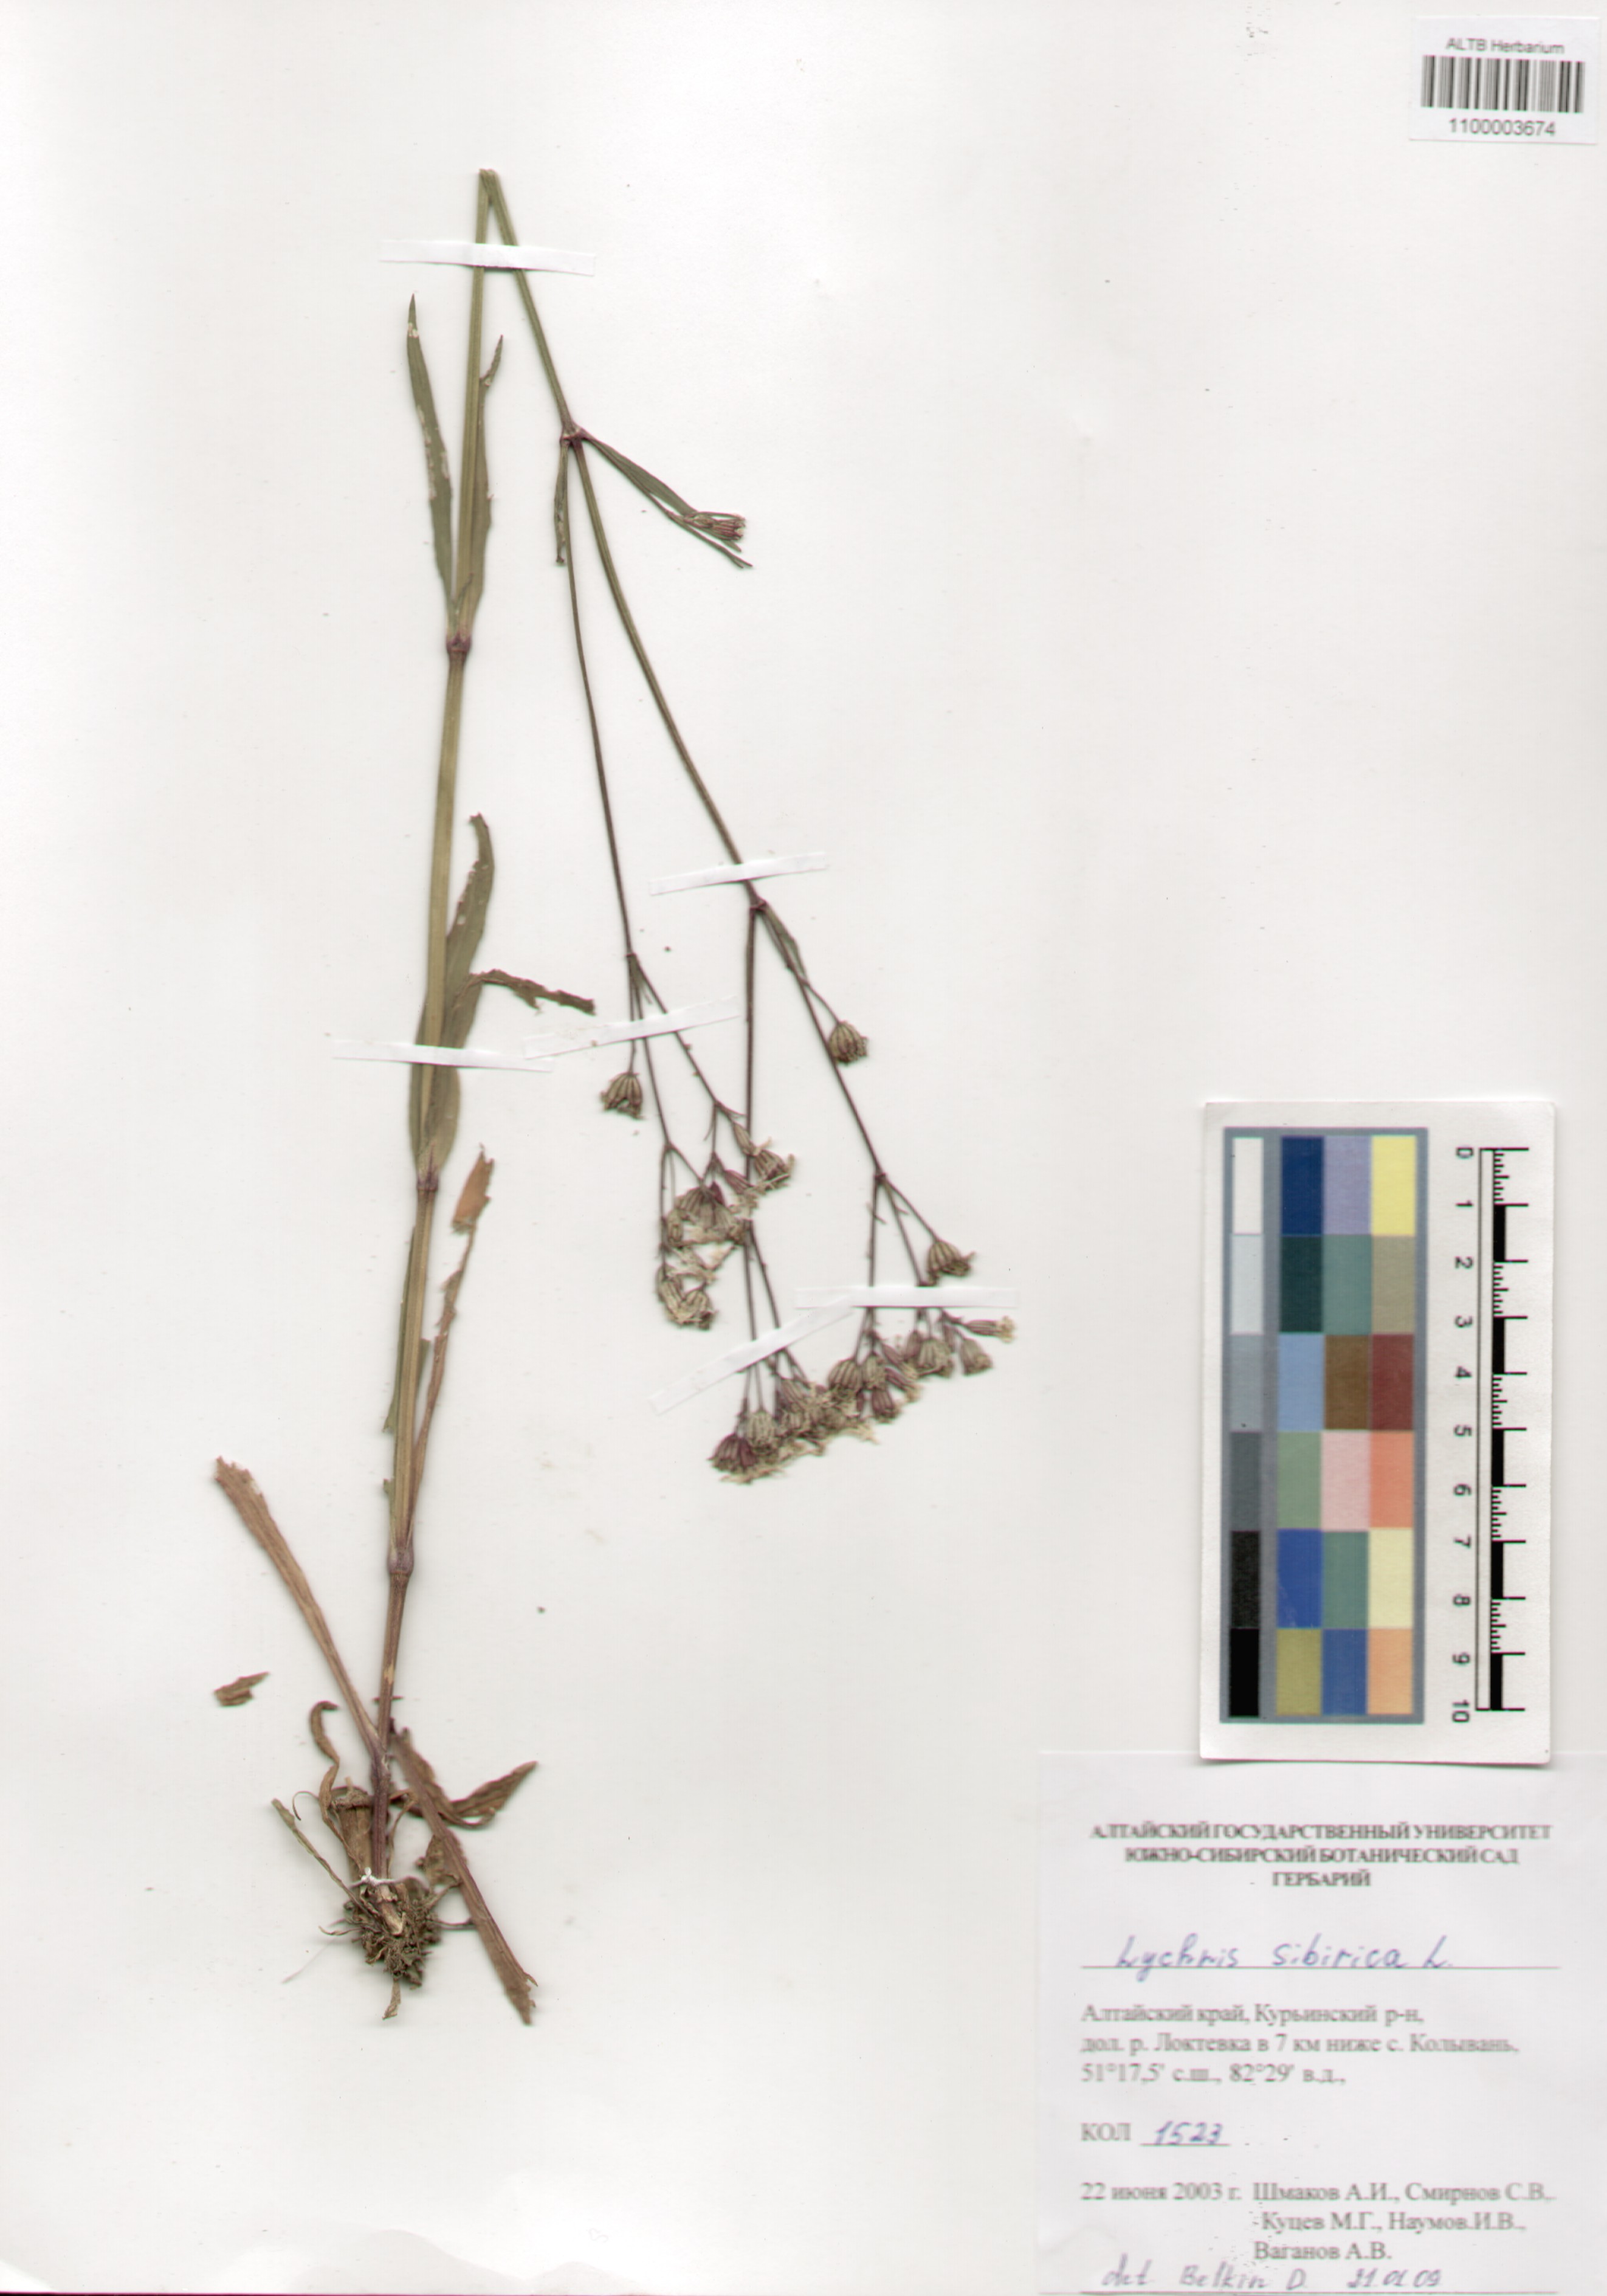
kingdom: Plantae
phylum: Tracheophyta
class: Magnoliopsida
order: Caryophyllales
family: Caryophyllaceae
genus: Silene
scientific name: Silene orientalimongolica
